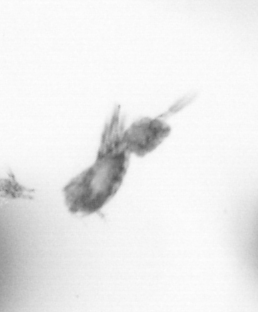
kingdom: Animalia
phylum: Arthropoda
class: Copepoda
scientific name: Copepoda
